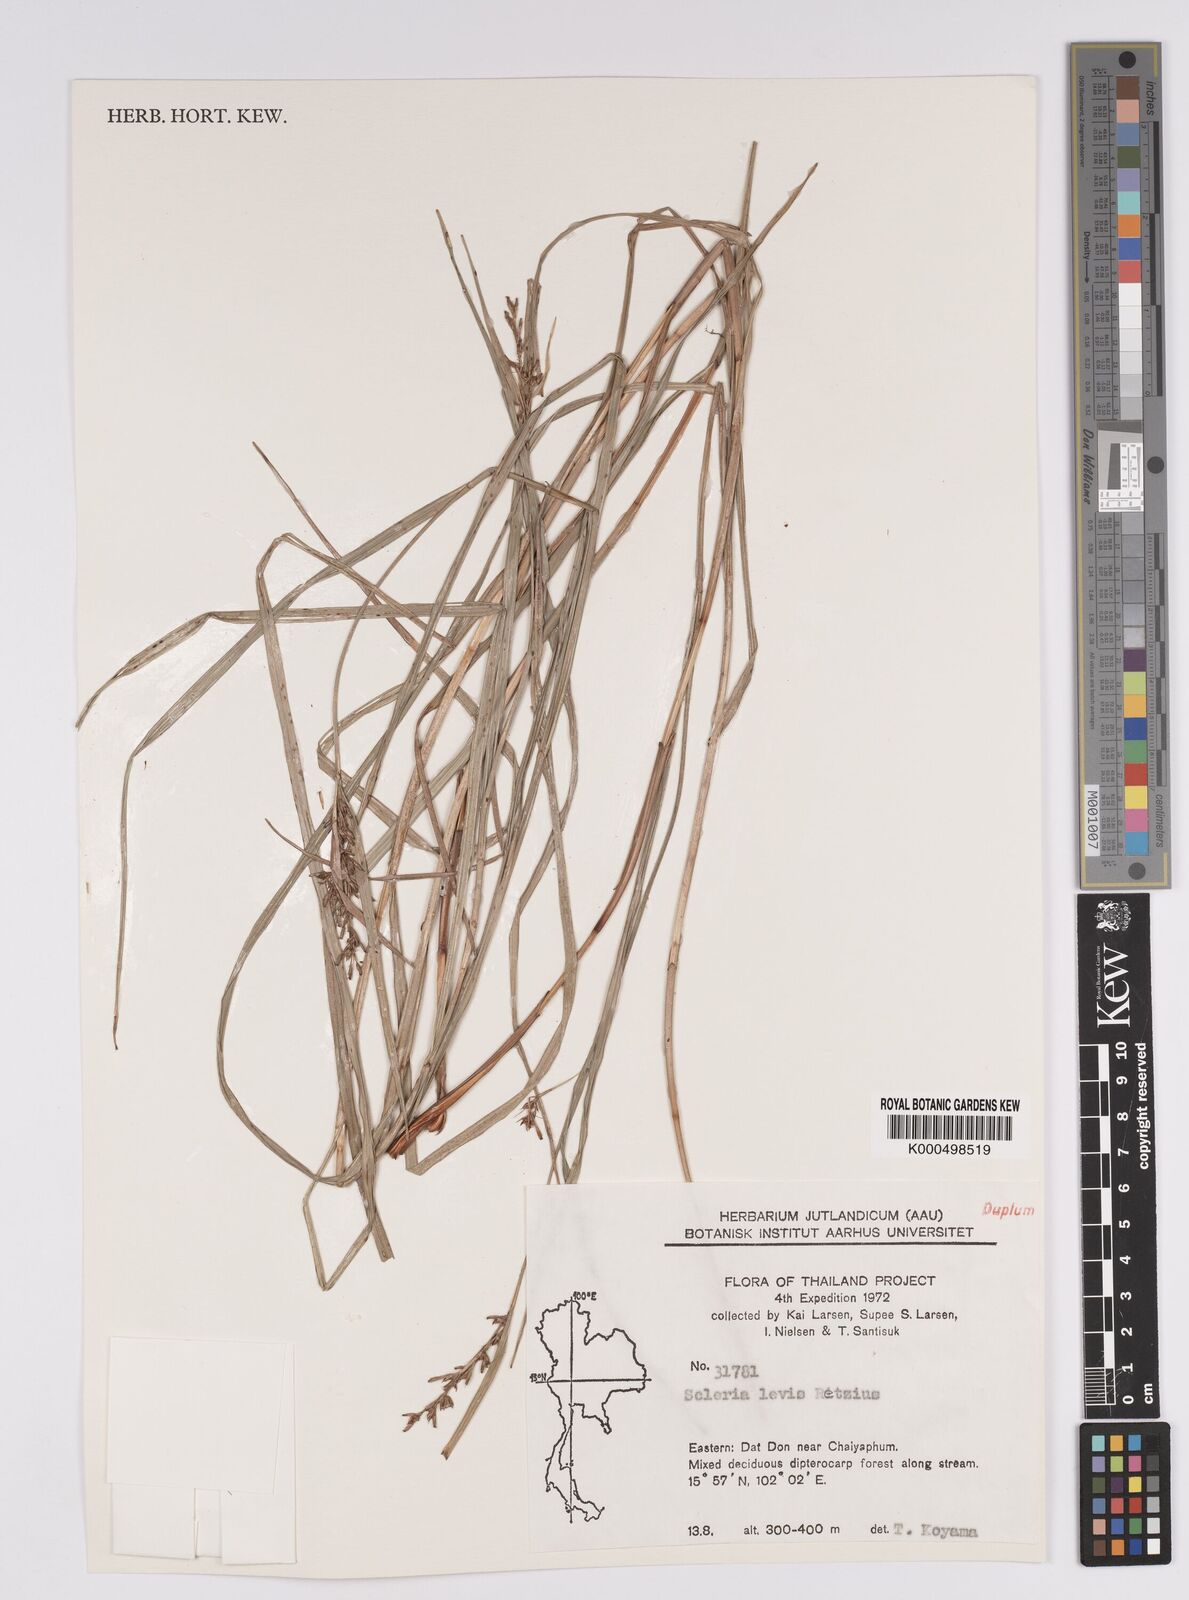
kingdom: Plantae
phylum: Tracheophyta
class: Liliopsida
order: Poales
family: Cyperaceae
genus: Scleria
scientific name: Scleria levis
